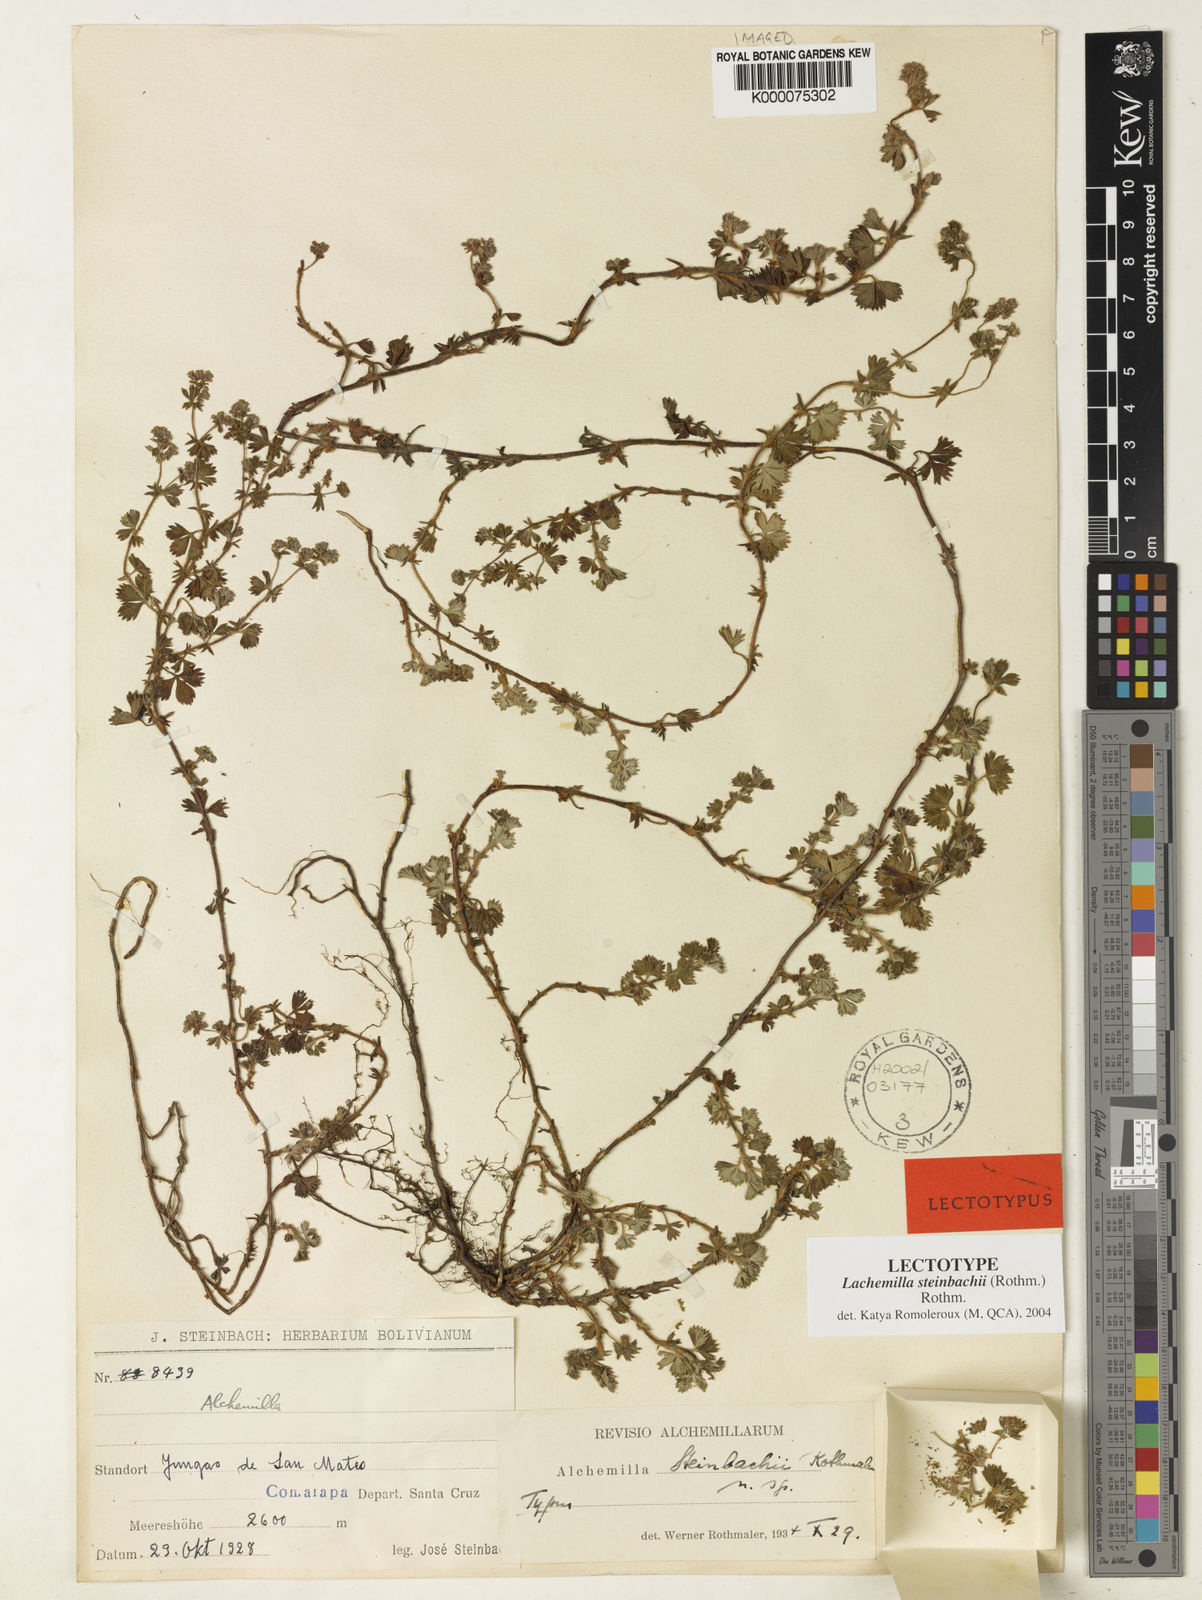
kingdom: Plantae
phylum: Tracheophyta
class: Magnoliopsida
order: Rosales
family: Rosaceae
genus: Alchemilla
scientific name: Alchemilla
